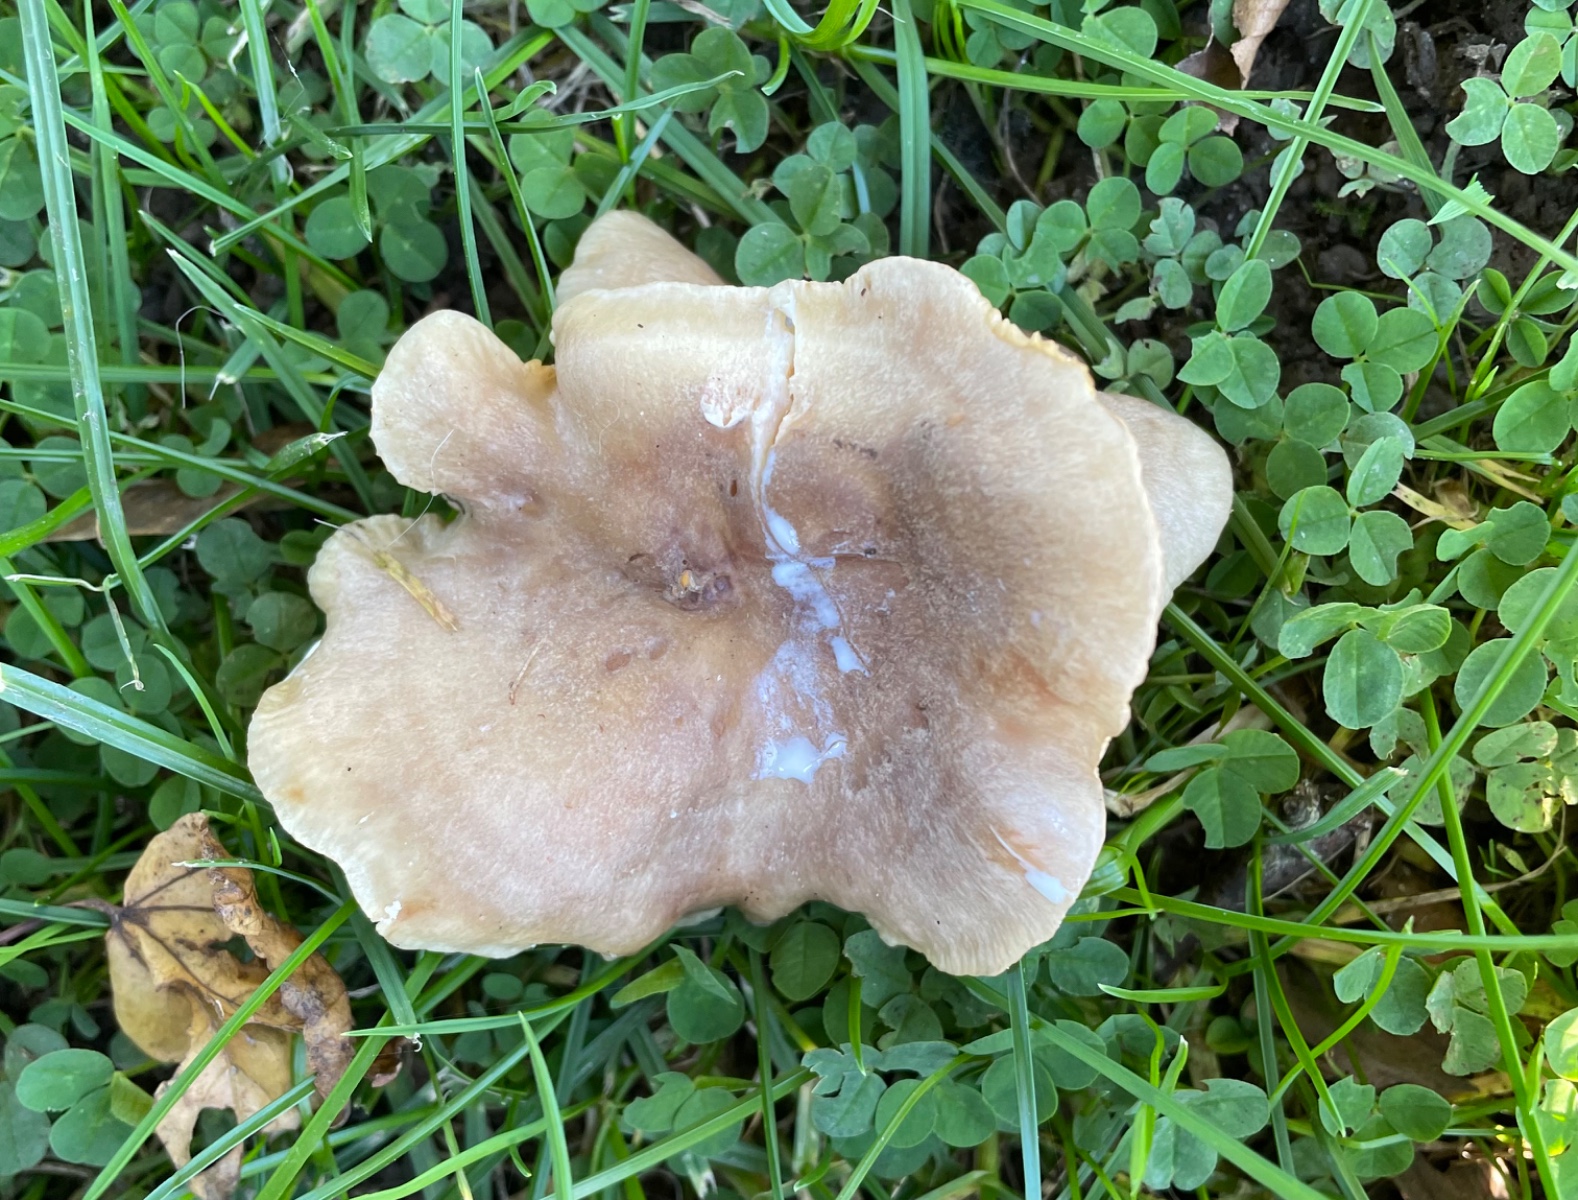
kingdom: Fungi
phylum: Basidiomycota
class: Agaricomycetes
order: Russulales
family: Russulaceae
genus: Lactarius
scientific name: Lactarius pyrogalus
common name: hassel-mælkehat
